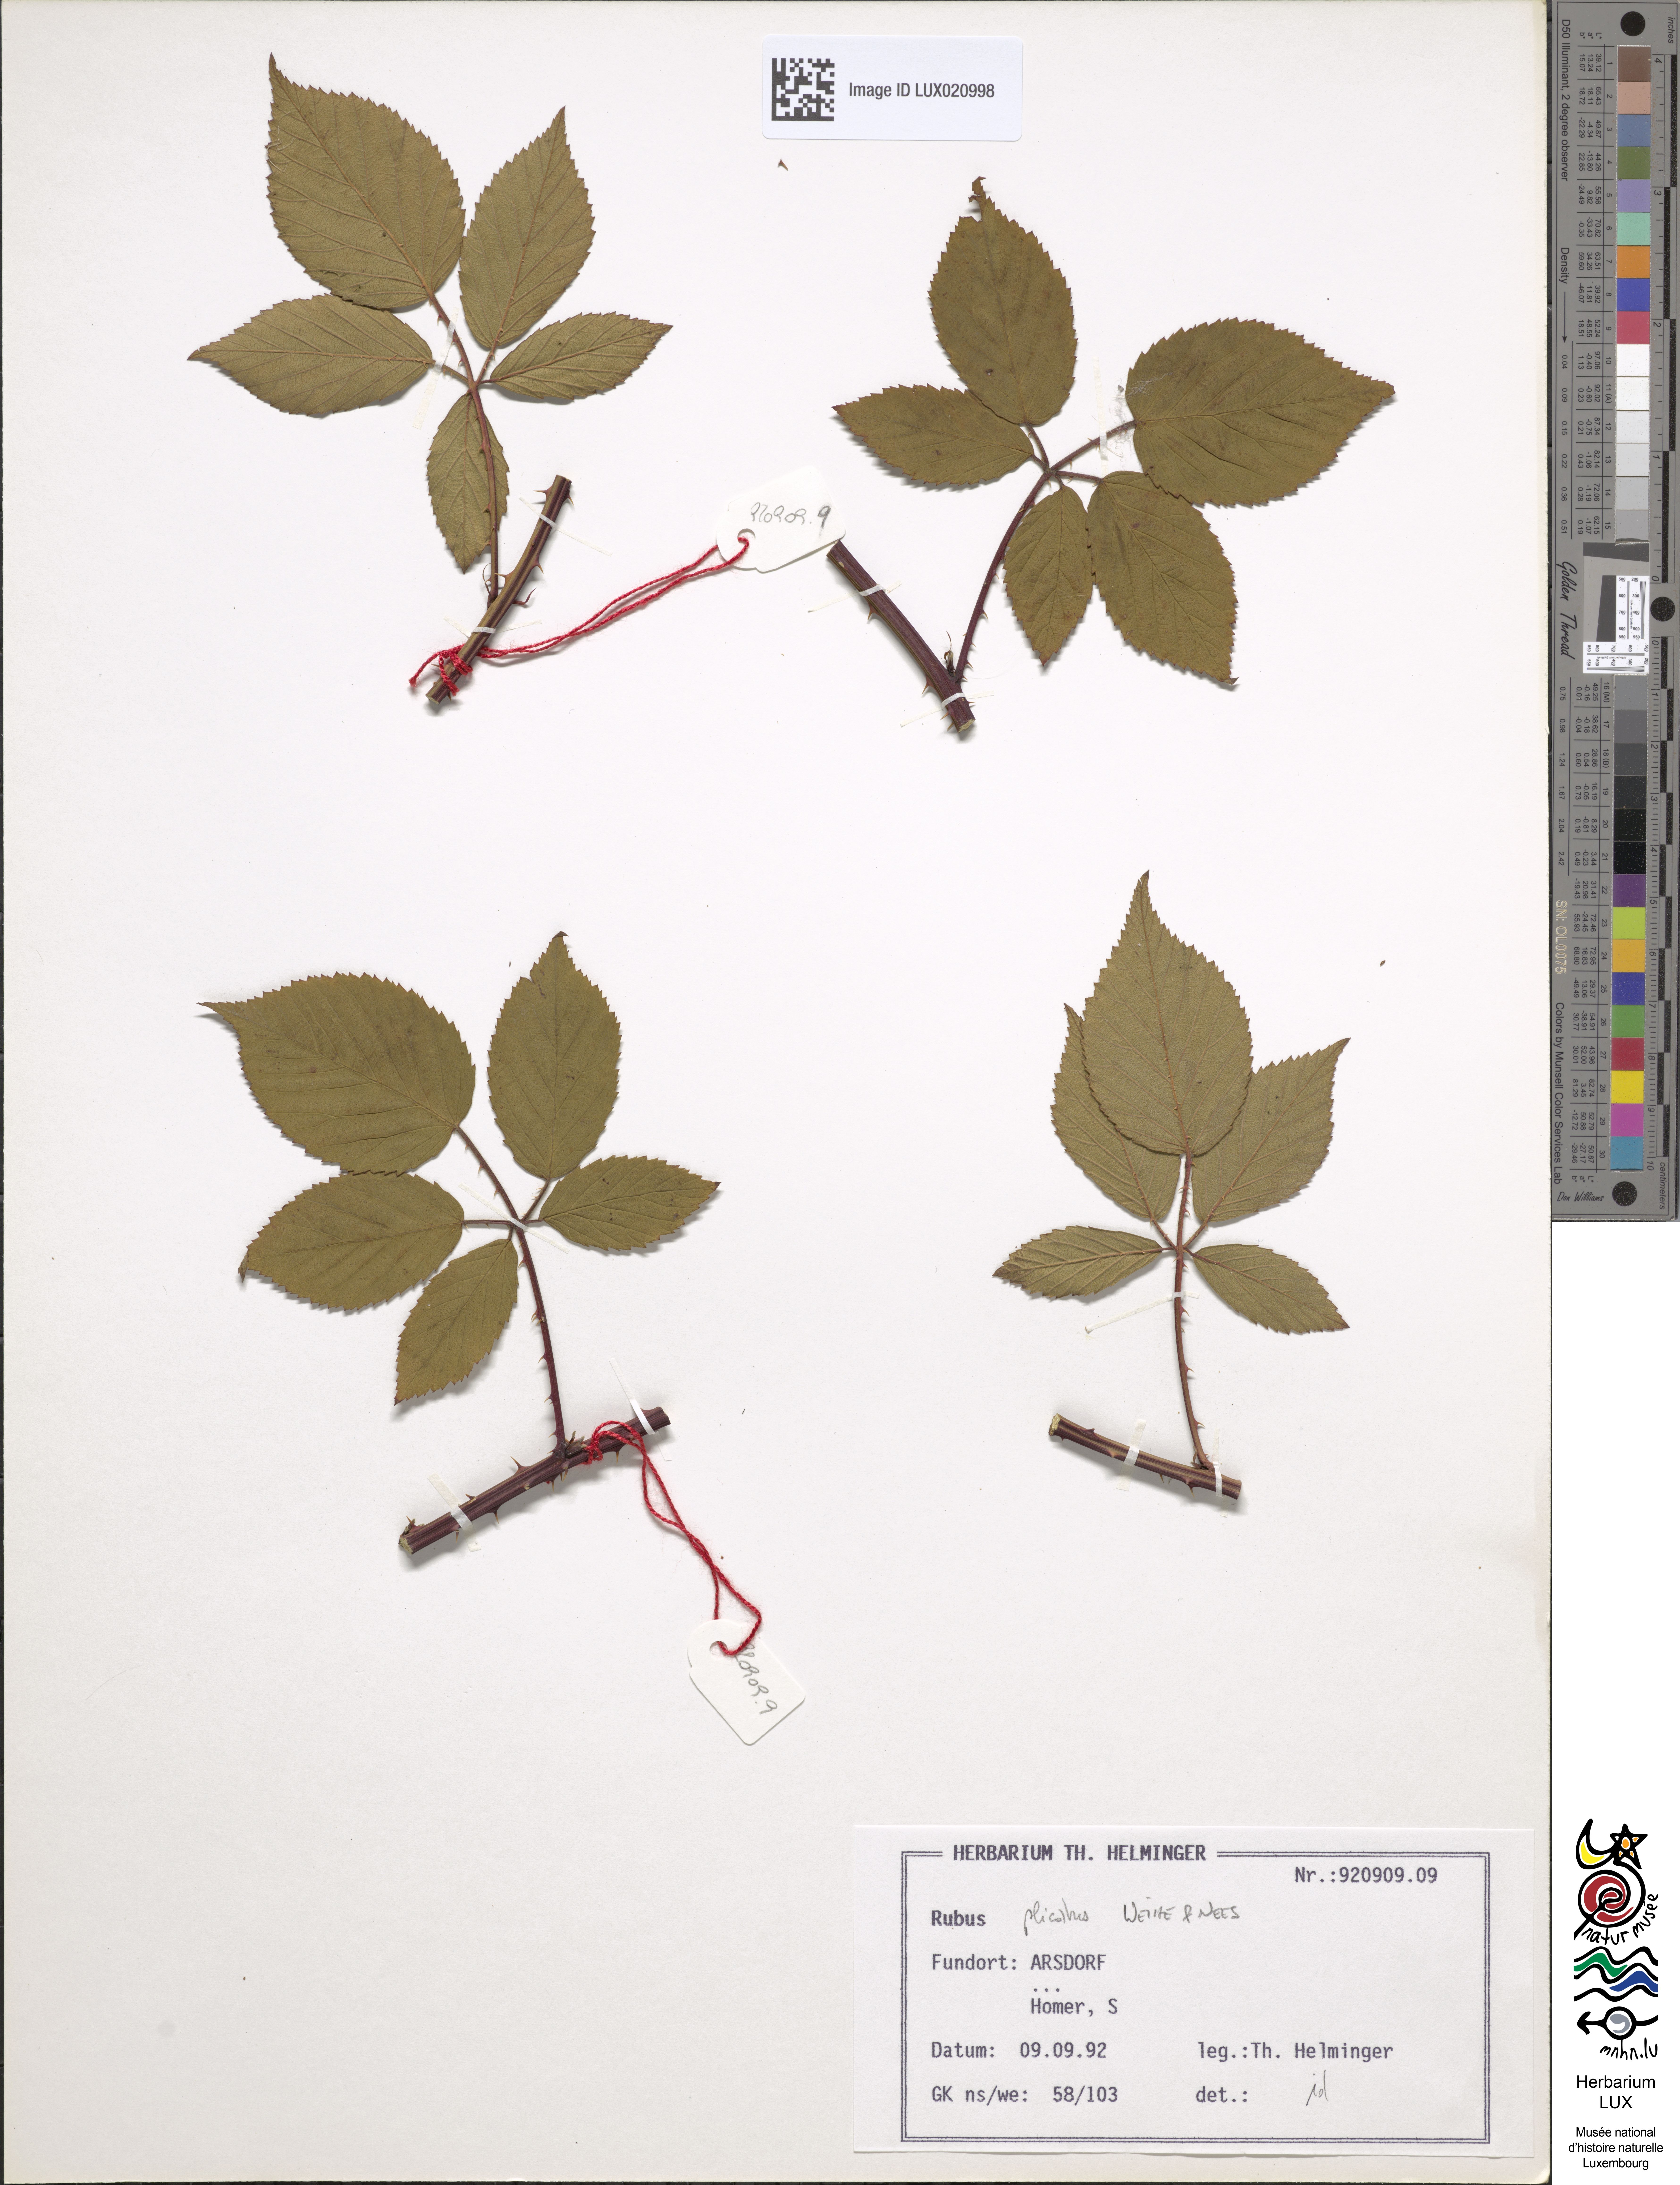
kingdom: Plantae
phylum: Tracheophyta
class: Magnoliopsida
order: Rosales
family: Rosaceae
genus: Rubus
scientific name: Rubus plicatus
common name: Plaited-leaved bramble
